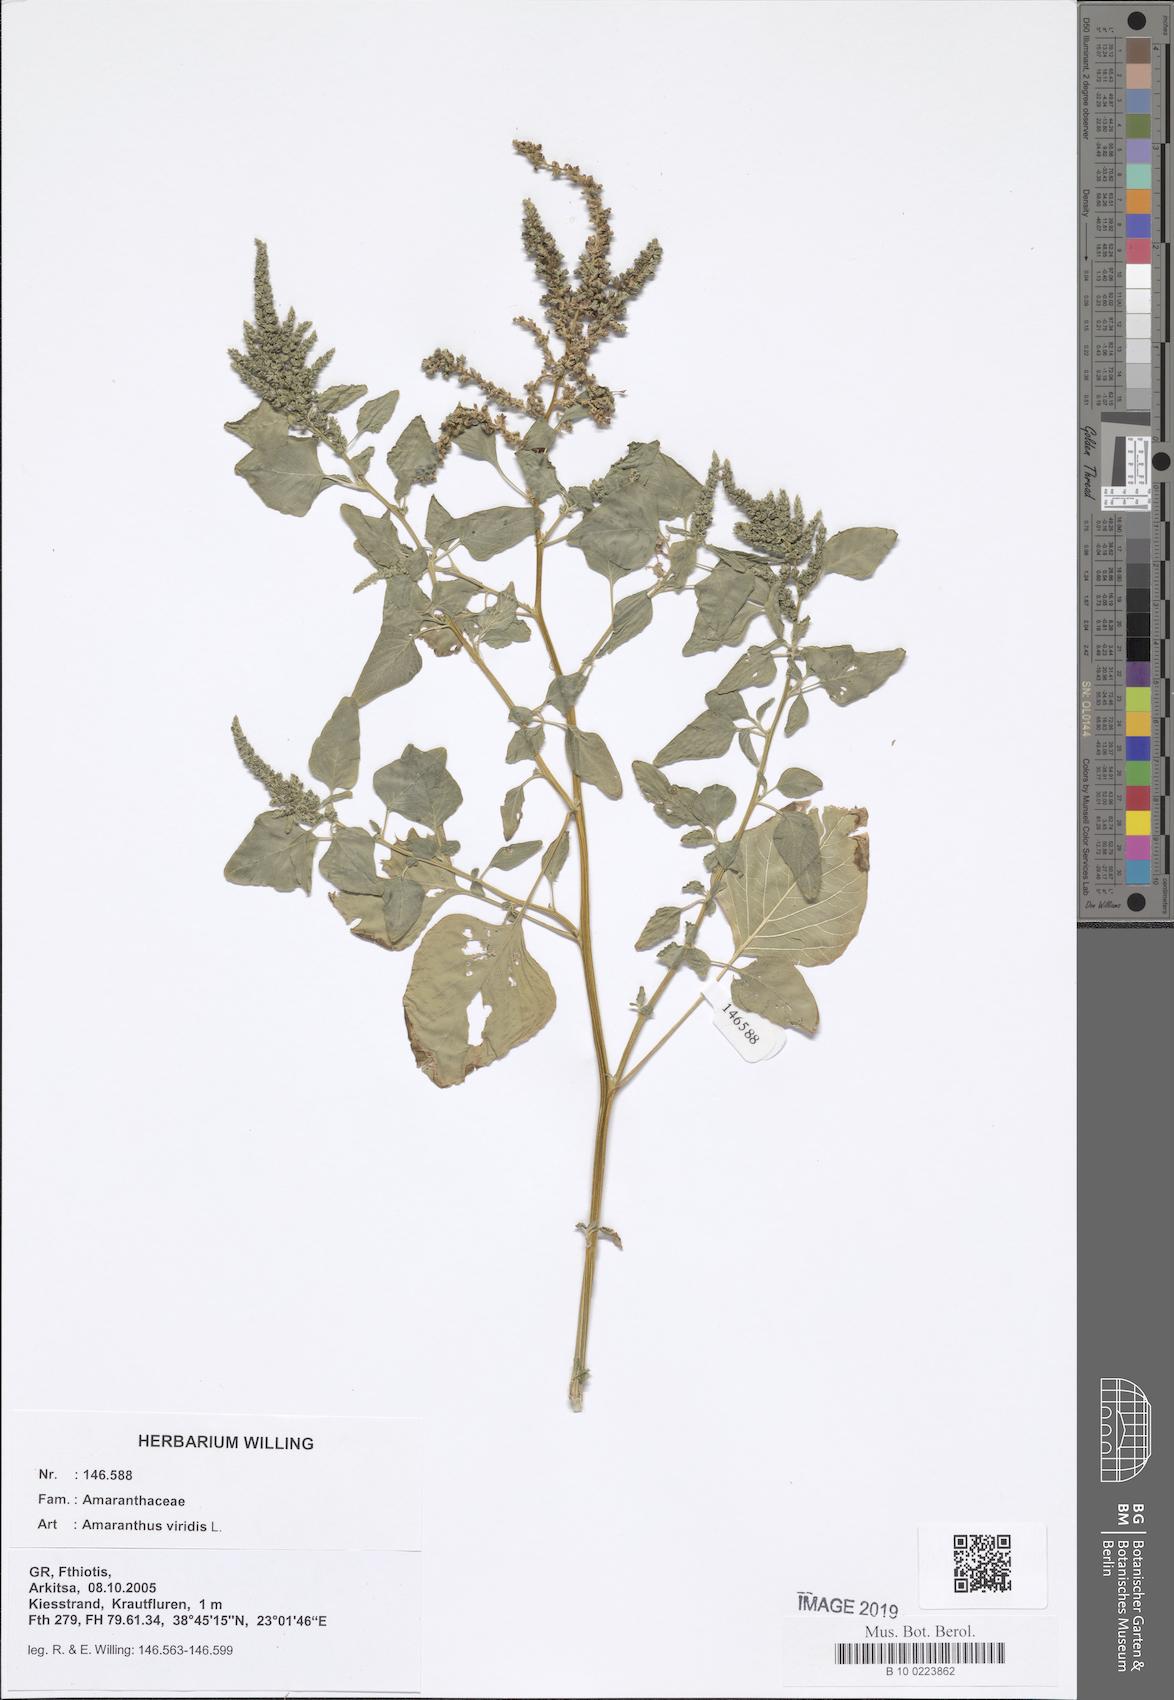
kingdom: Plantae
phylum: Tracheophyta
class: Magnoliopsida
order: Caryophyllales
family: Amaranthaceae
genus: Amaranthus
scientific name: Amaranthus viridis
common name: Slender amaranth
